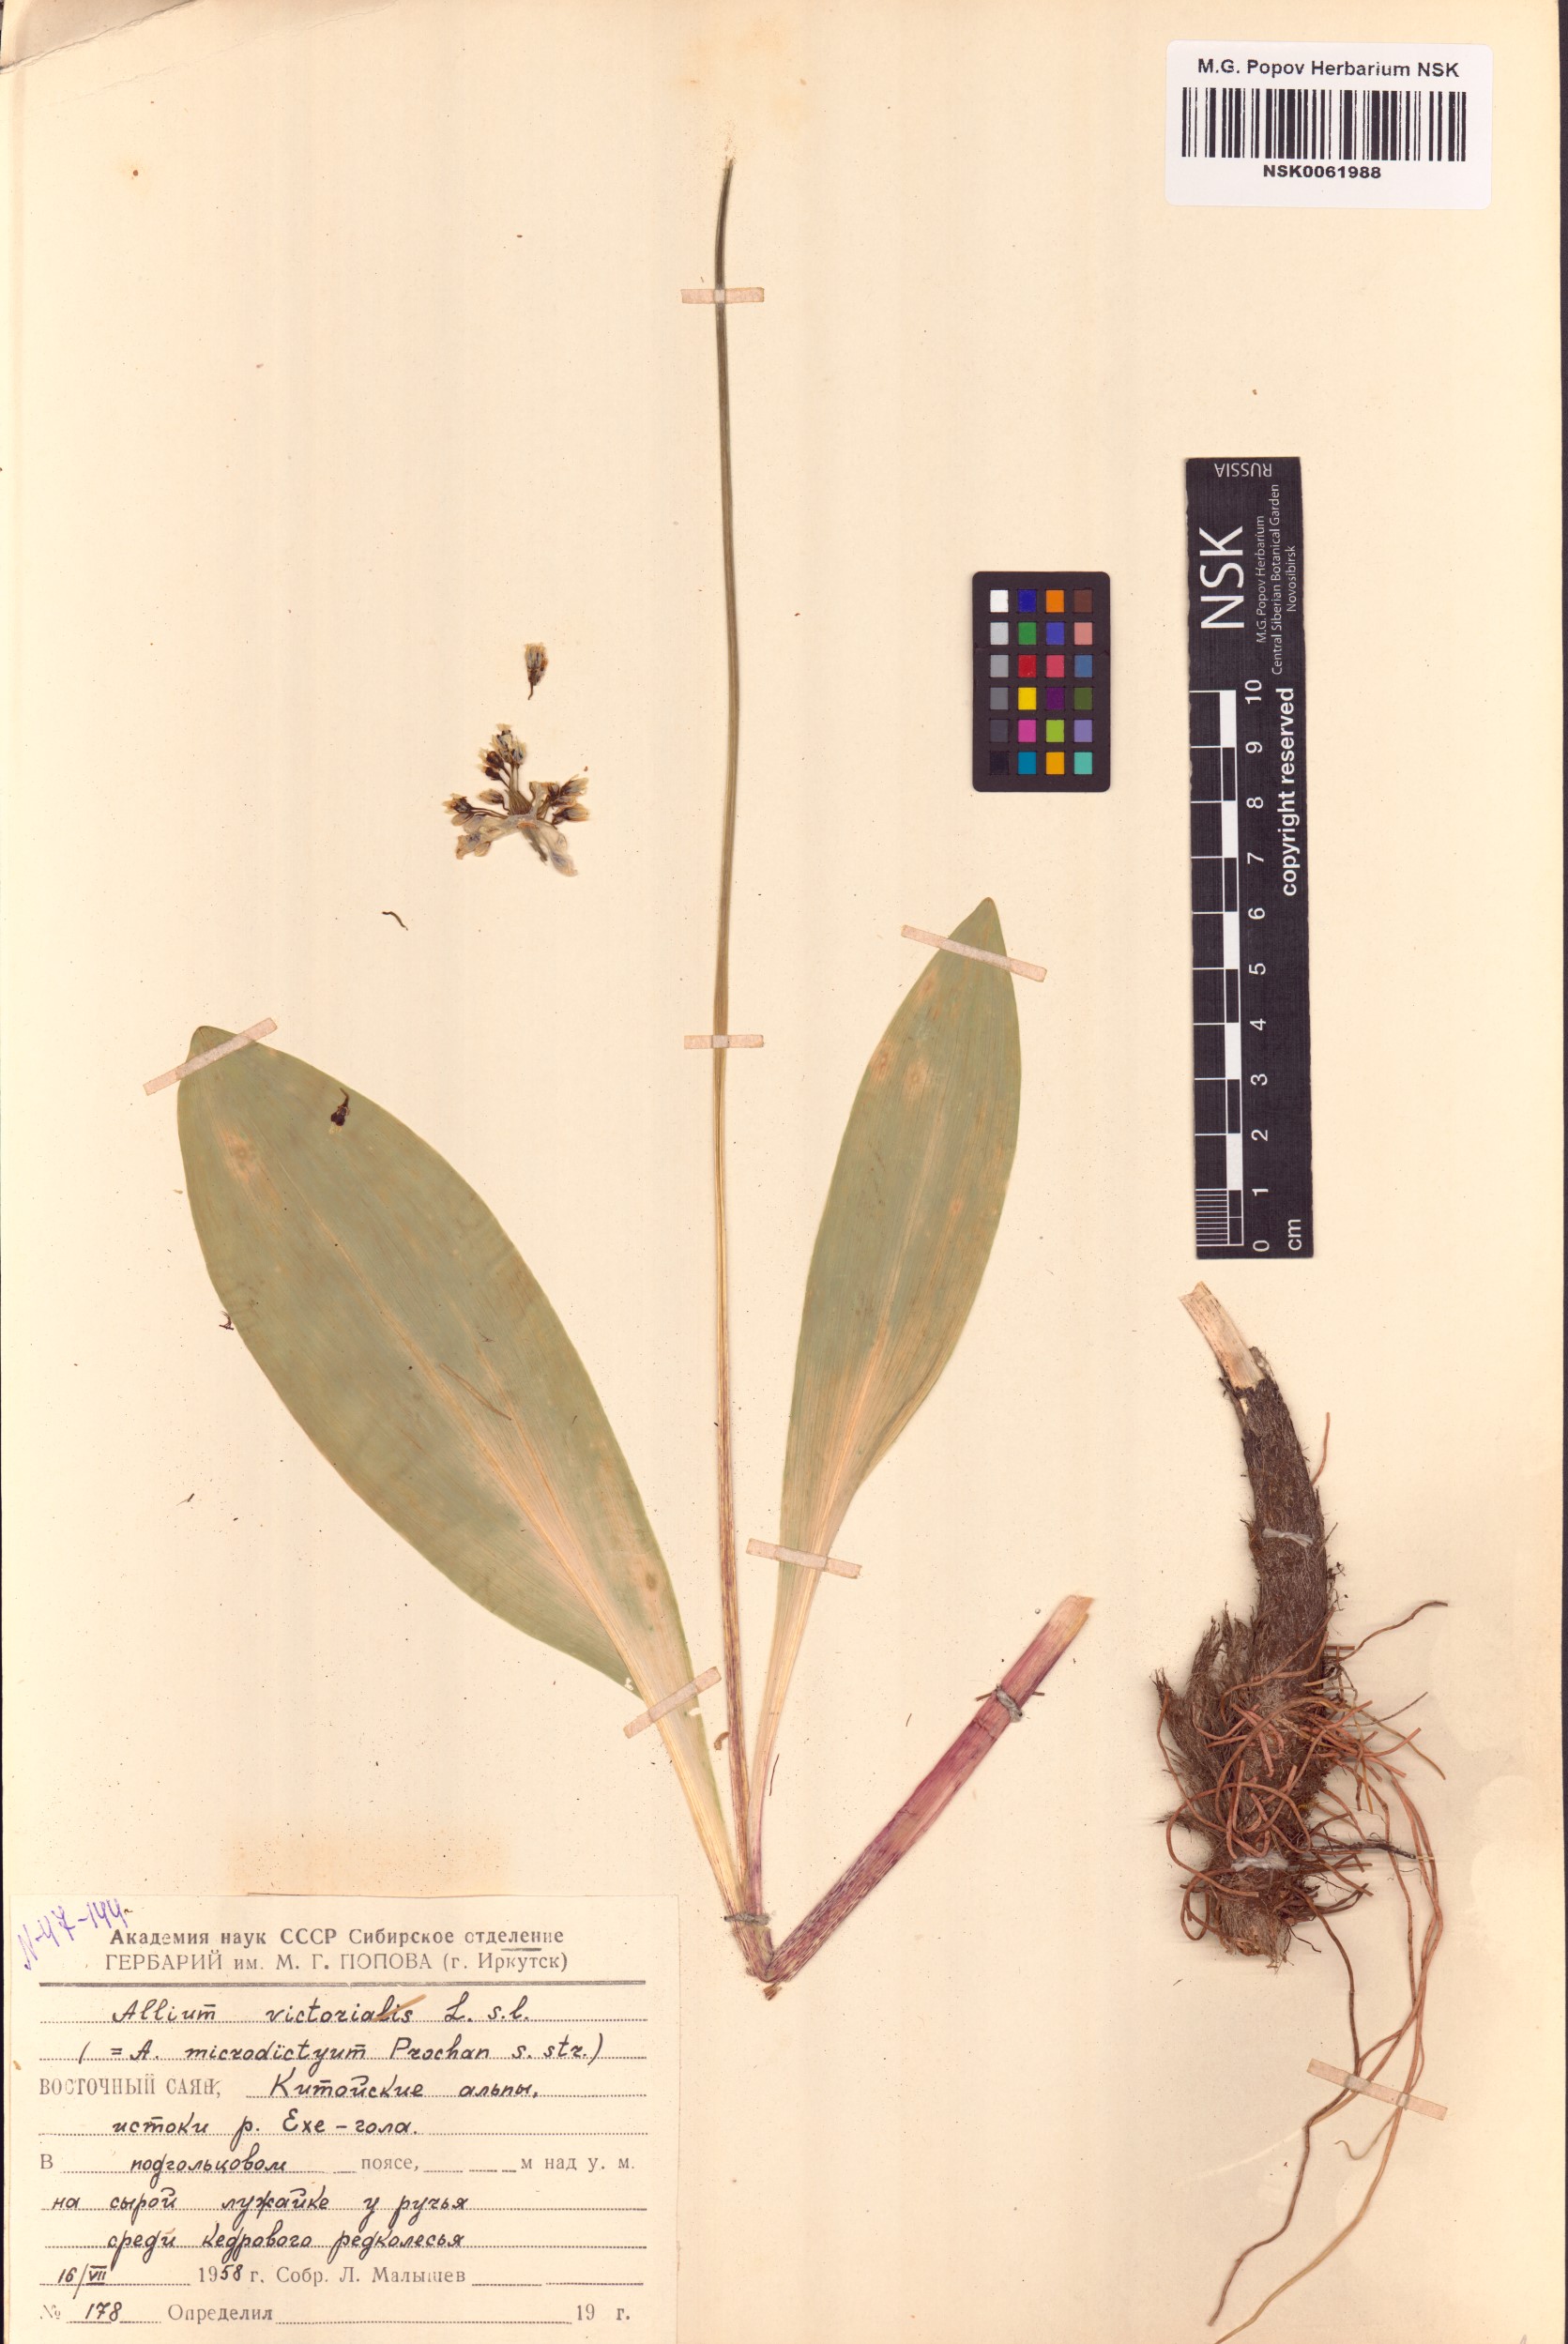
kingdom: Plantae
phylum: Tracheophyta
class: Liliopsida
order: Asparagales
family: Amaryllidaceae
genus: Allium
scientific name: Allium victorialis
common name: Alpine leek
